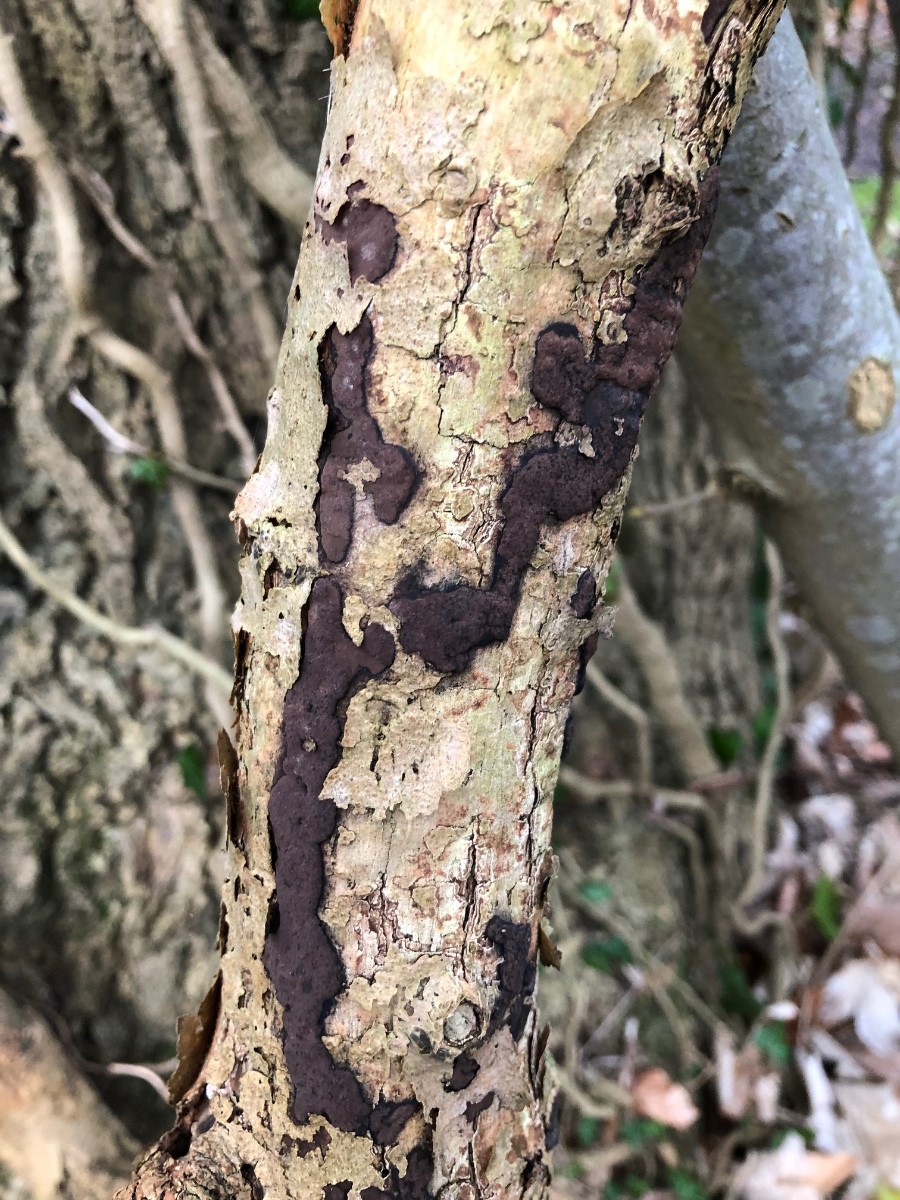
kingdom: Fungi
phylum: Ascomycota
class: Sordariomycetes
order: Xylariales
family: Hypoxylaceae
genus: Hypoxylon
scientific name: Hypoxylon petriniae
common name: nedsænket kulbær
